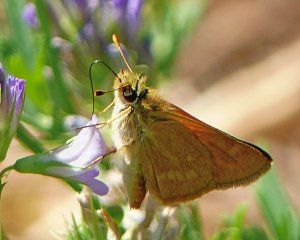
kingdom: Animalia
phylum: Arthropoda
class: Insecta
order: Lepidoptera
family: Hesperiidae
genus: Ochlodes
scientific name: Ochlodes sylvanoides
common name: Woodland Skipper
